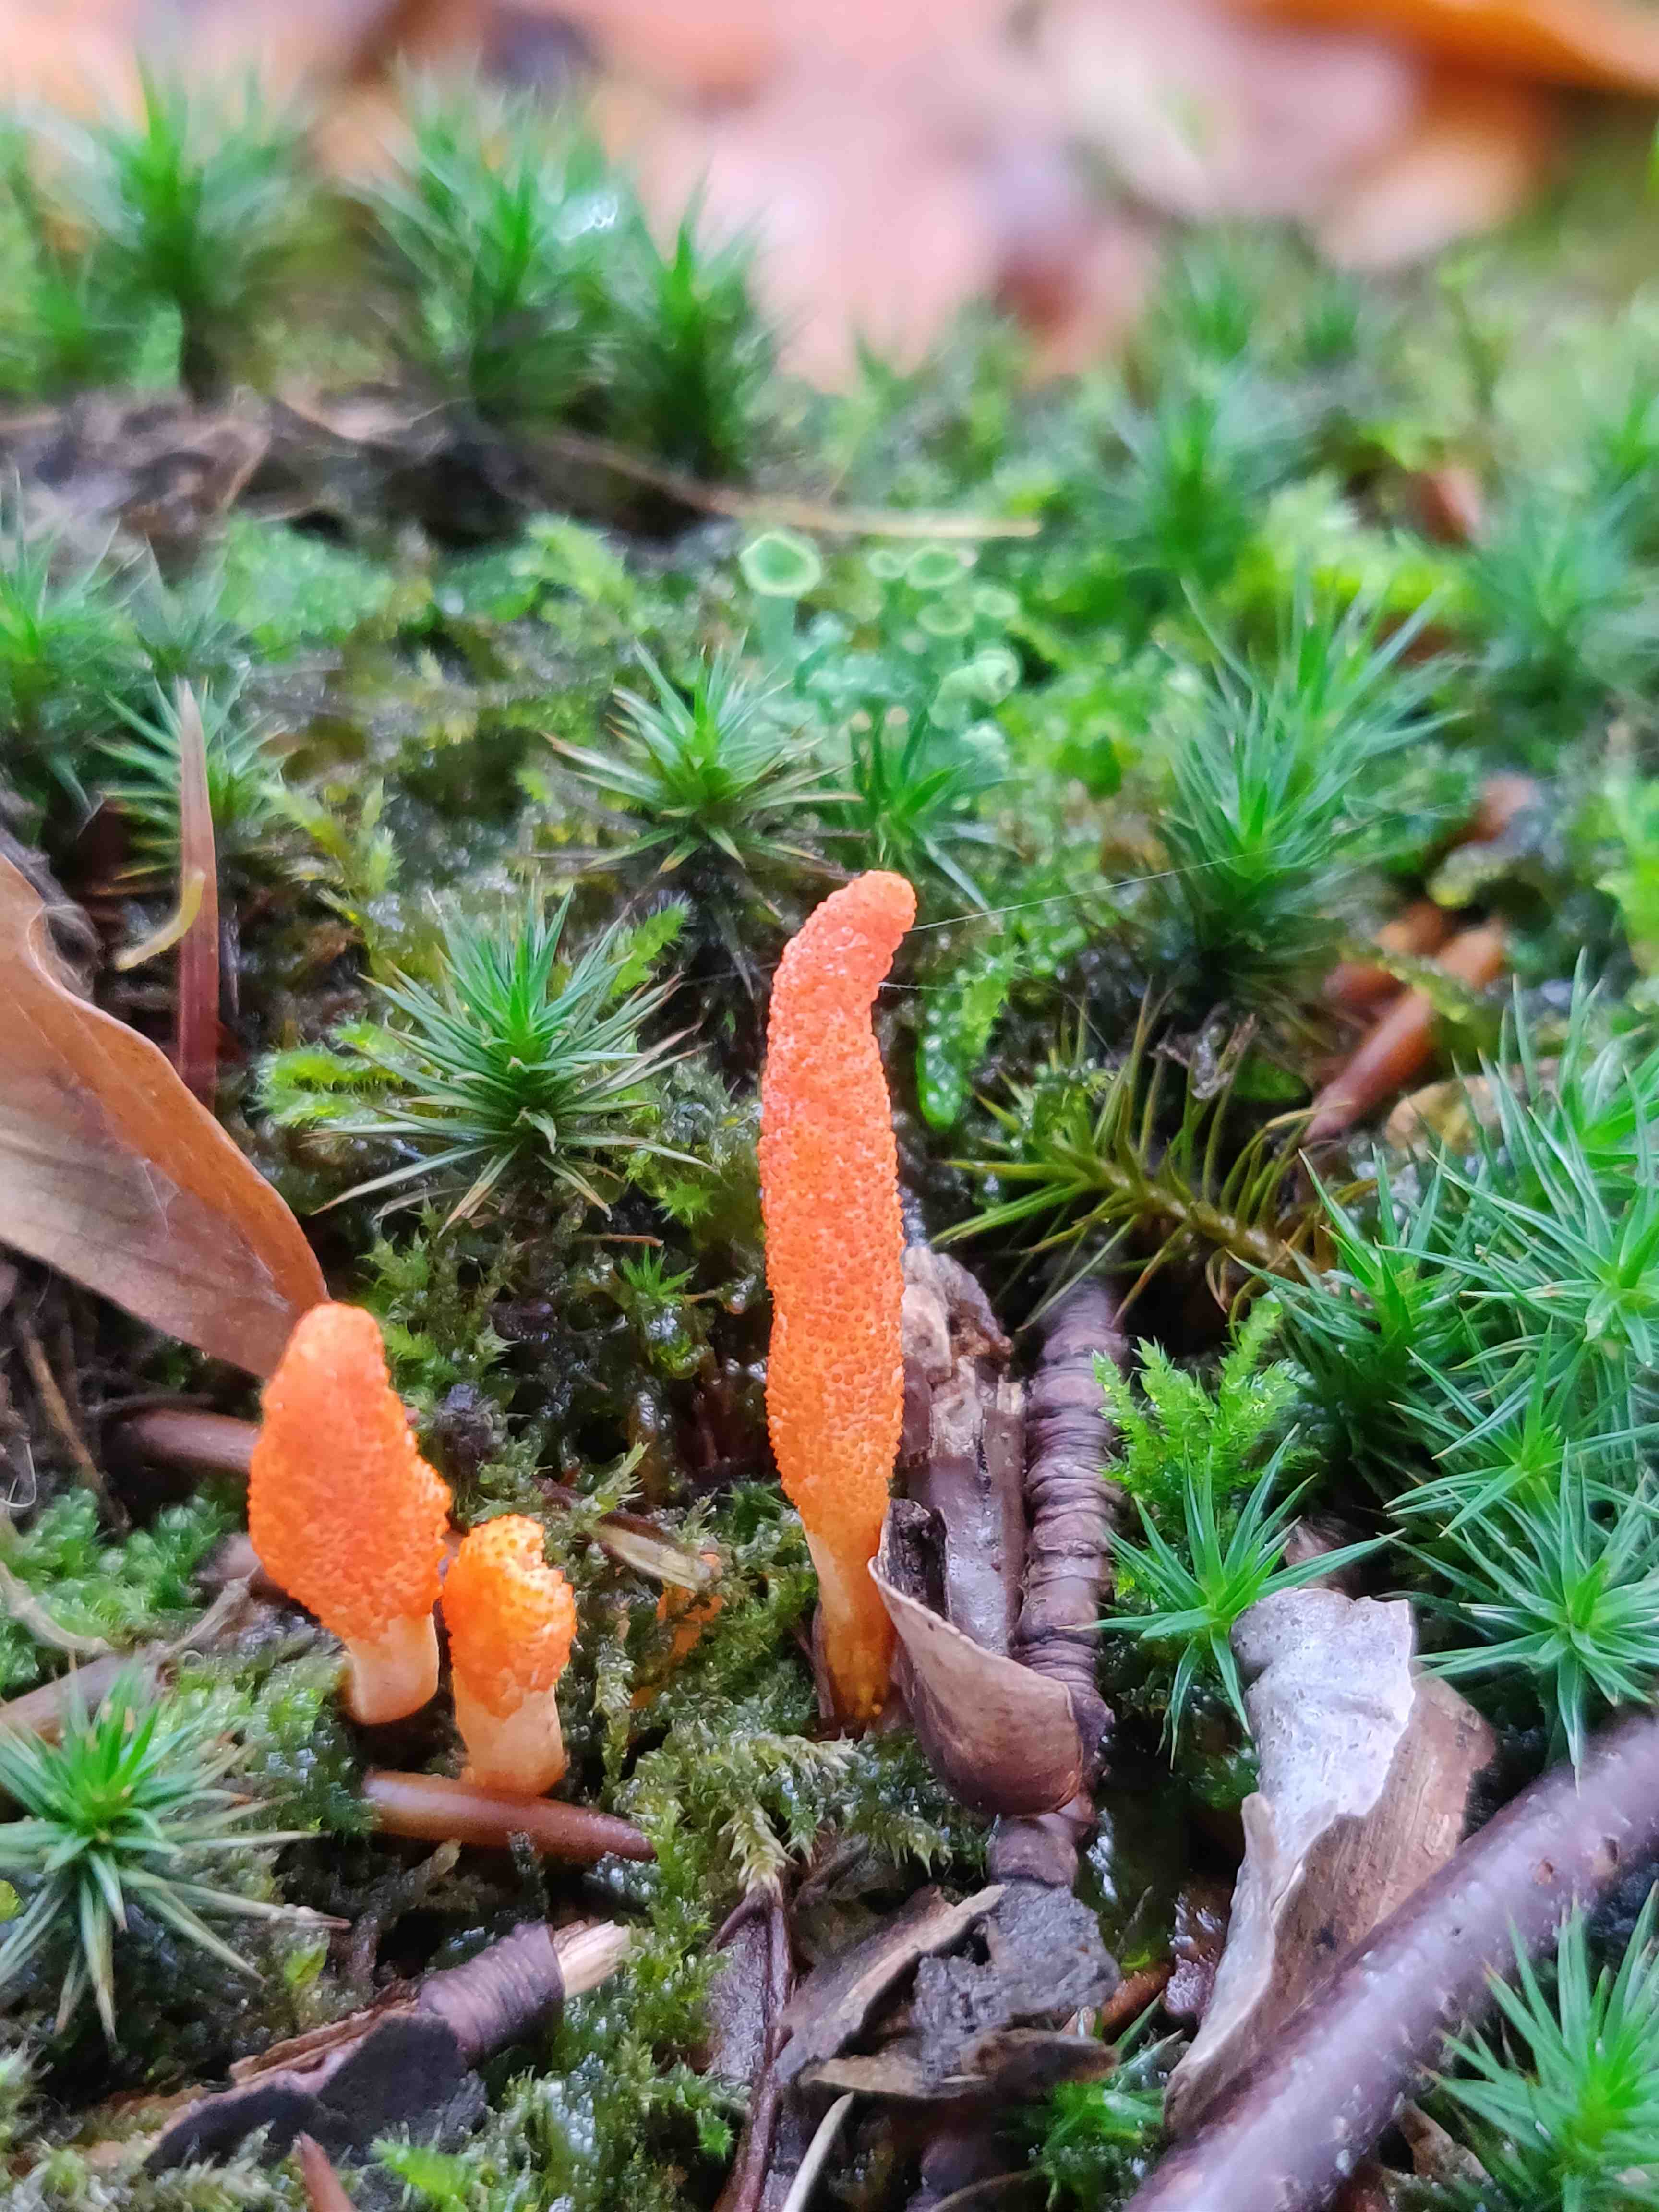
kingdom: Fungi
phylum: Ascomycota
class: Sordariomycetes
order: Hypocreales
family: Cordycipitaceae
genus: Cordyceps
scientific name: Cordyceps militaris
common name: puppe-snyltekølle
